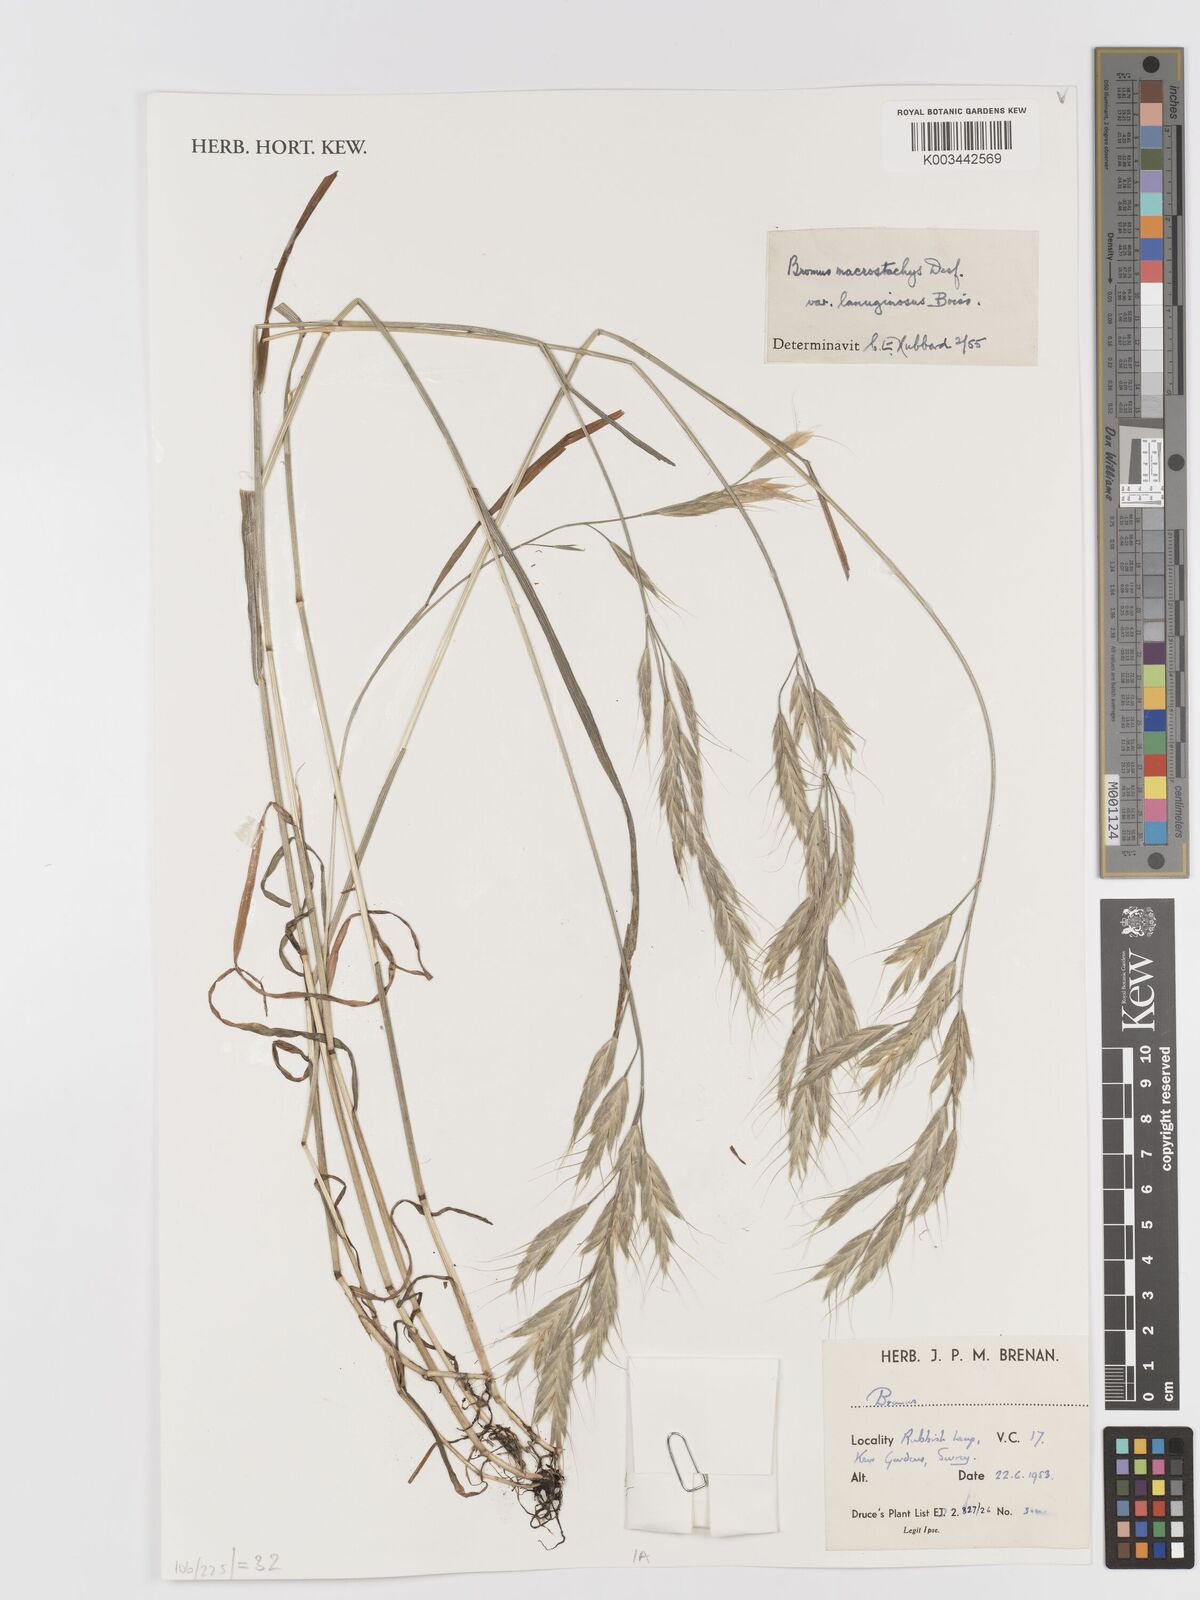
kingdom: Plantae
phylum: Tracheophyta
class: Liliopsida
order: Poales
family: Poaceae
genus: Bromus
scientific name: Bromus lanceolatus
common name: Mediterranean brome
